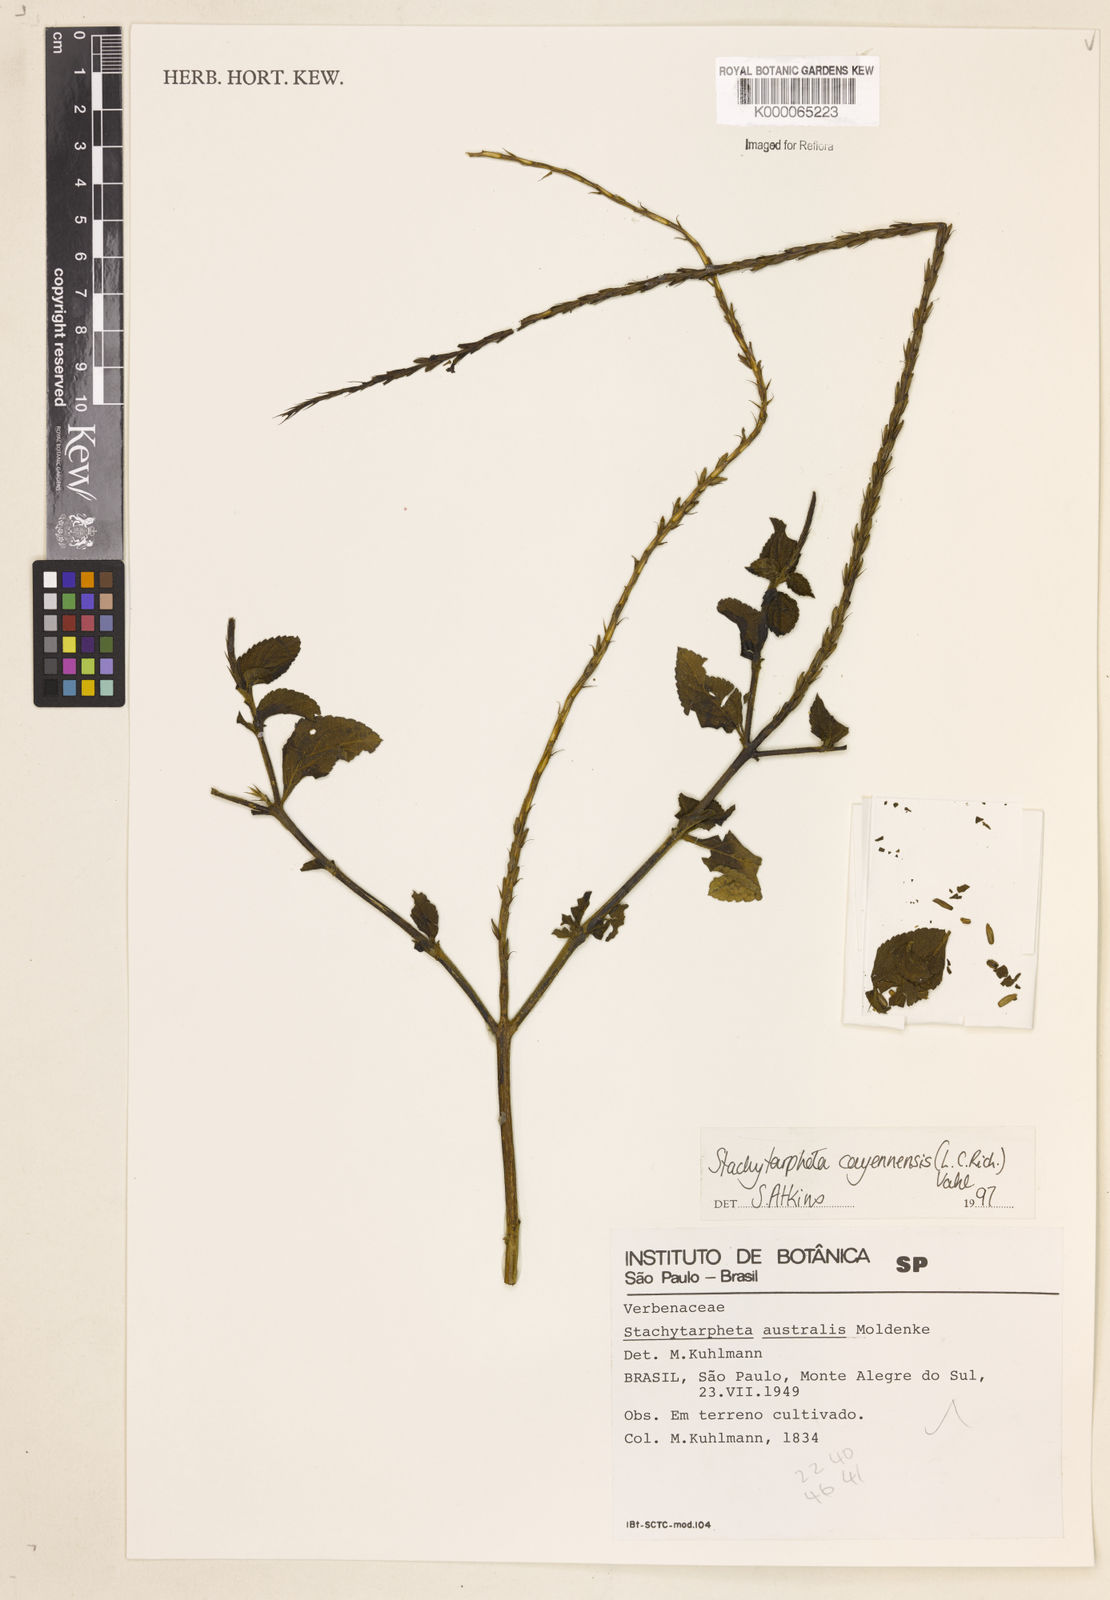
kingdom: Plantae
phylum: Tracheophyta
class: Magnoliopsida
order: Lamiales
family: Verbenaceae
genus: Stachytarpheta
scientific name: Stachytarpheta cayennensis
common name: Cayenne porterweed
